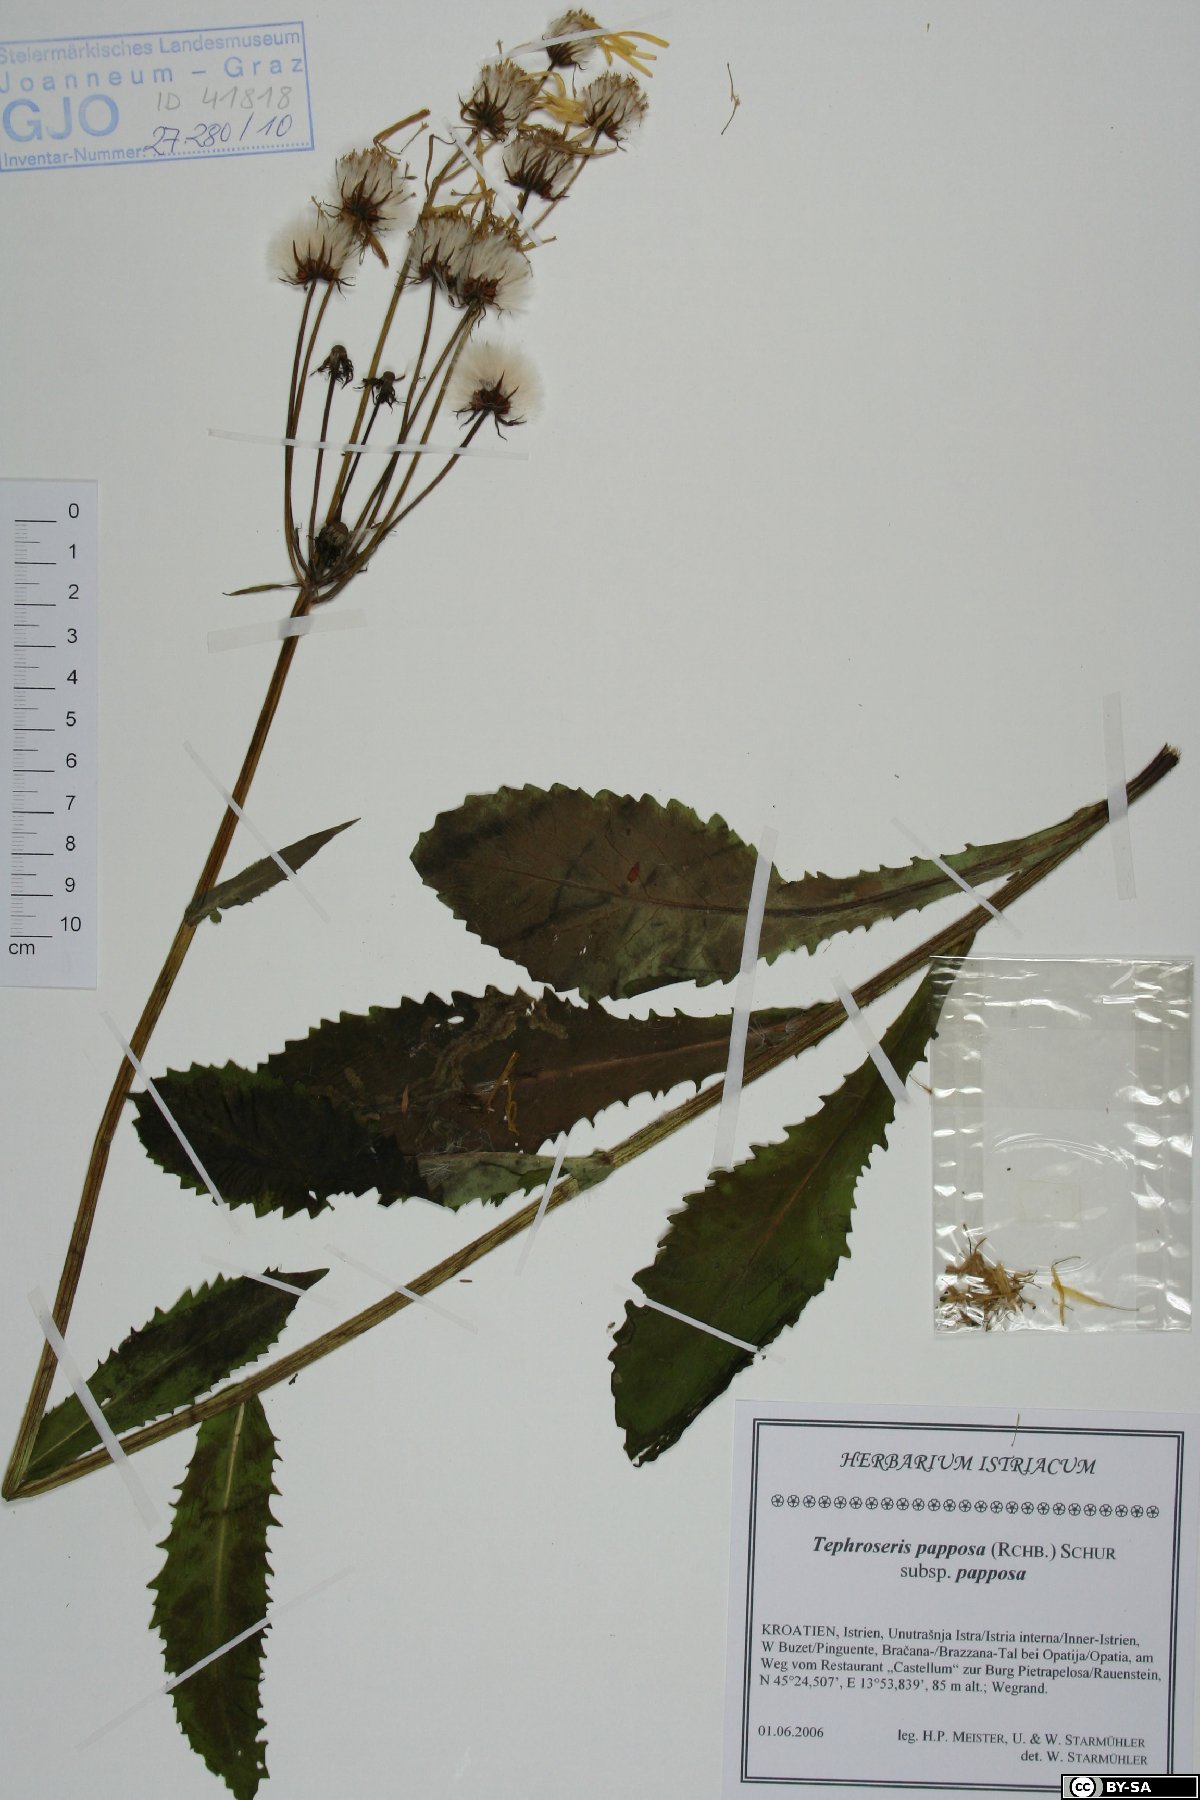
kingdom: Plantae
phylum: Tracheophyta
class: Magnoliopsida
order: Asterales
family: Asteraceae
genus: Tephroseris
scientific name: Tephroseris papposa
